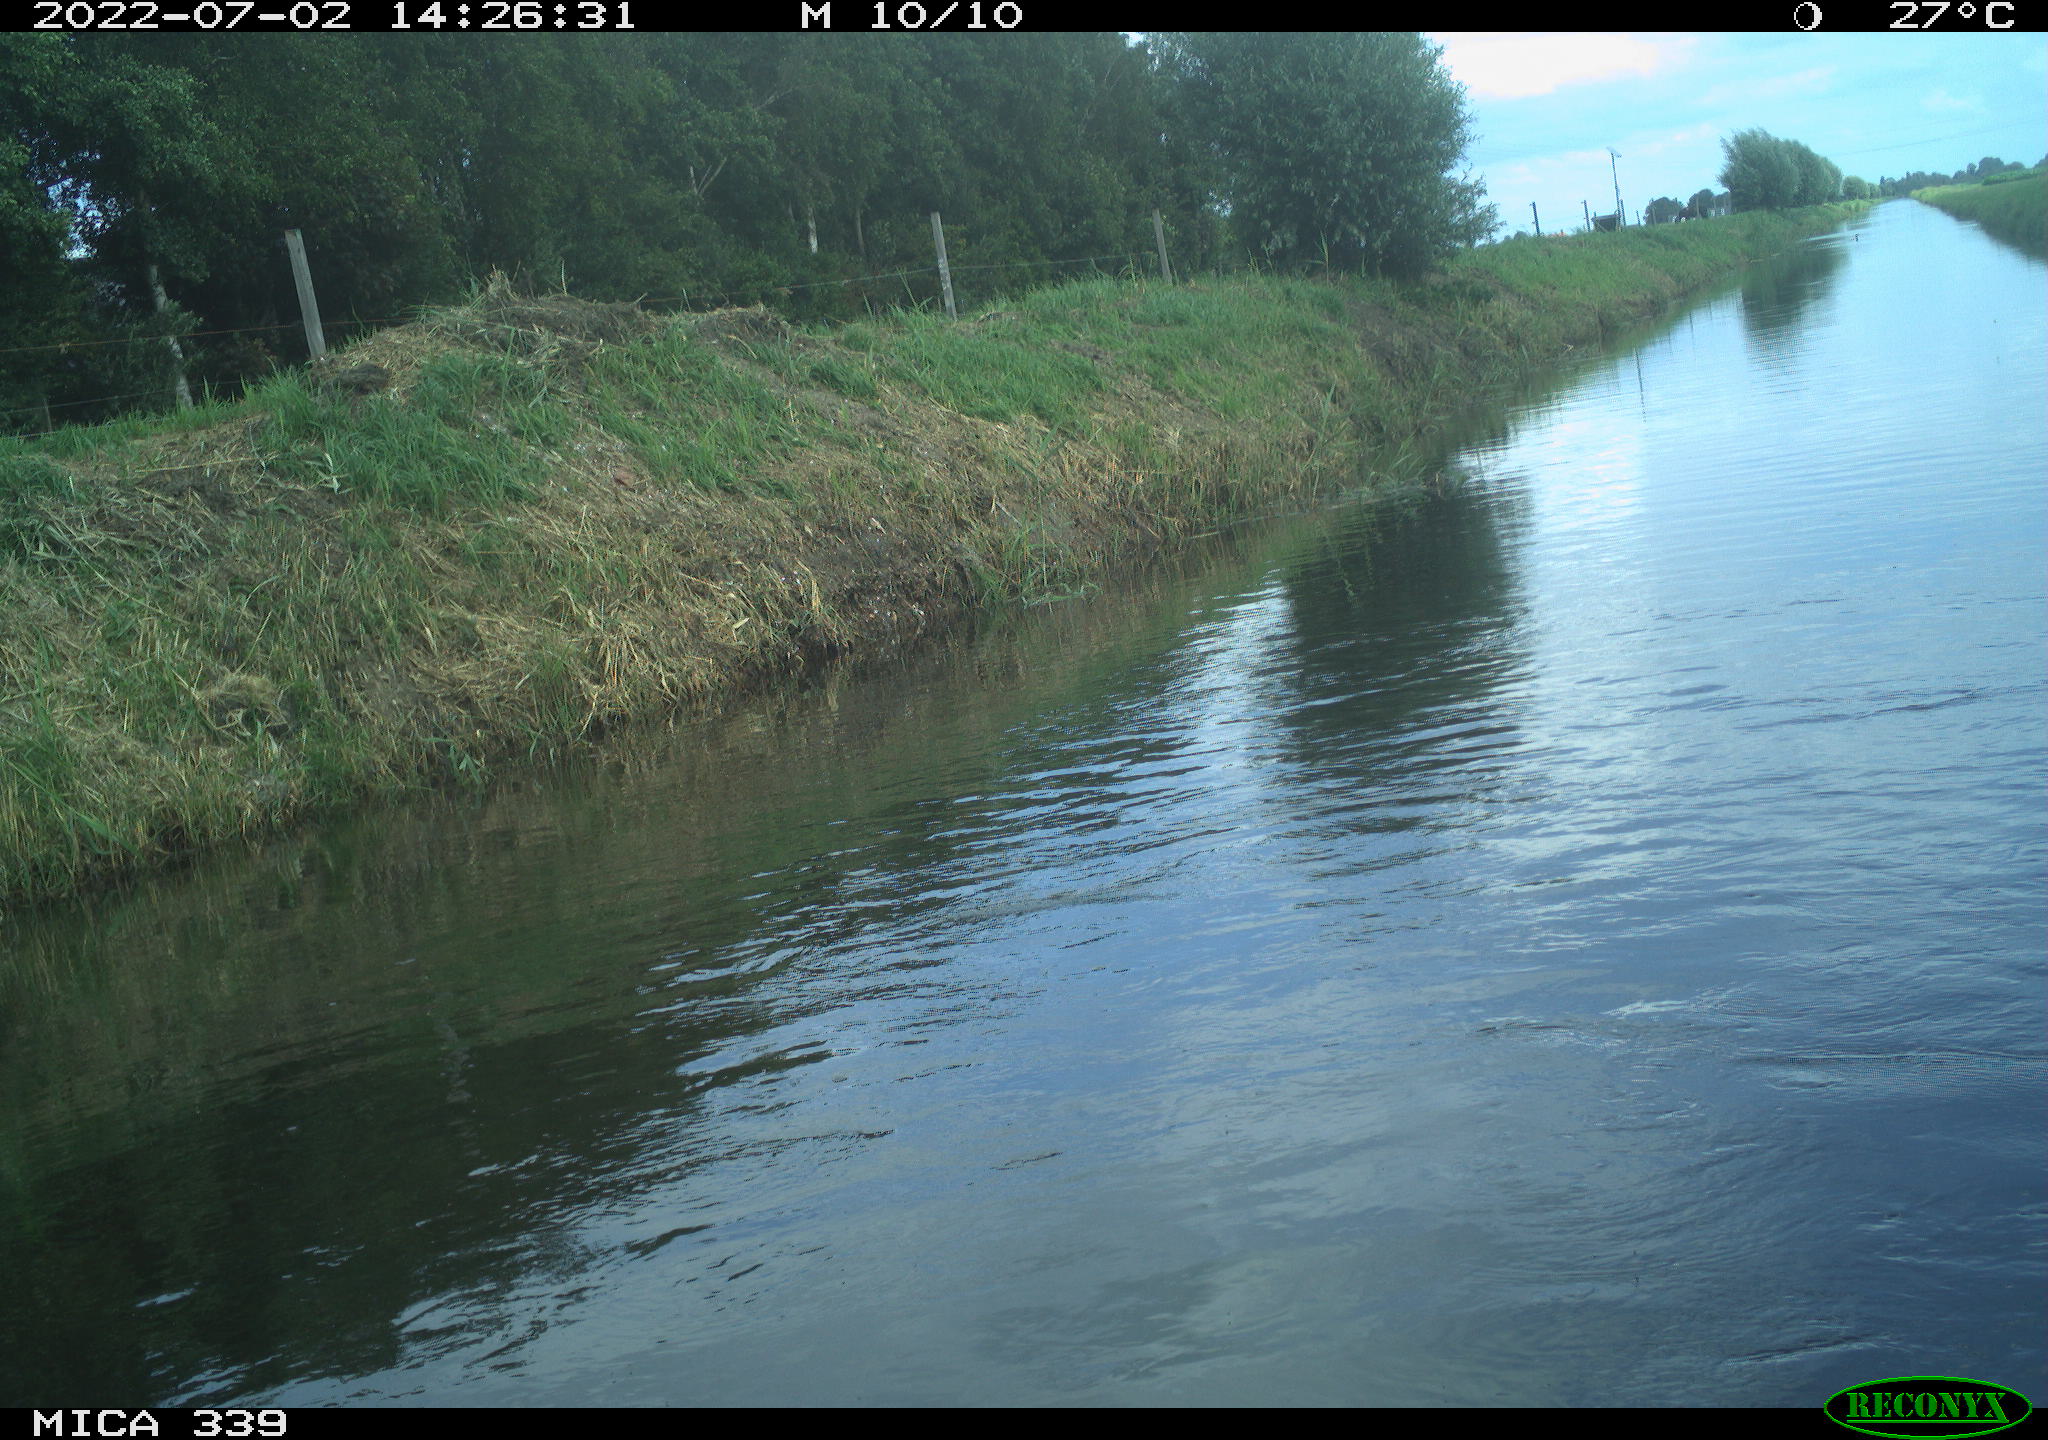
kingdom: Animalia
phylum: Chordata
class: Aves
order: Pelecaniformes
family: Ardeidae
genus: Ardea
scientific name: Ardea cinerea
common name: Grey heron
